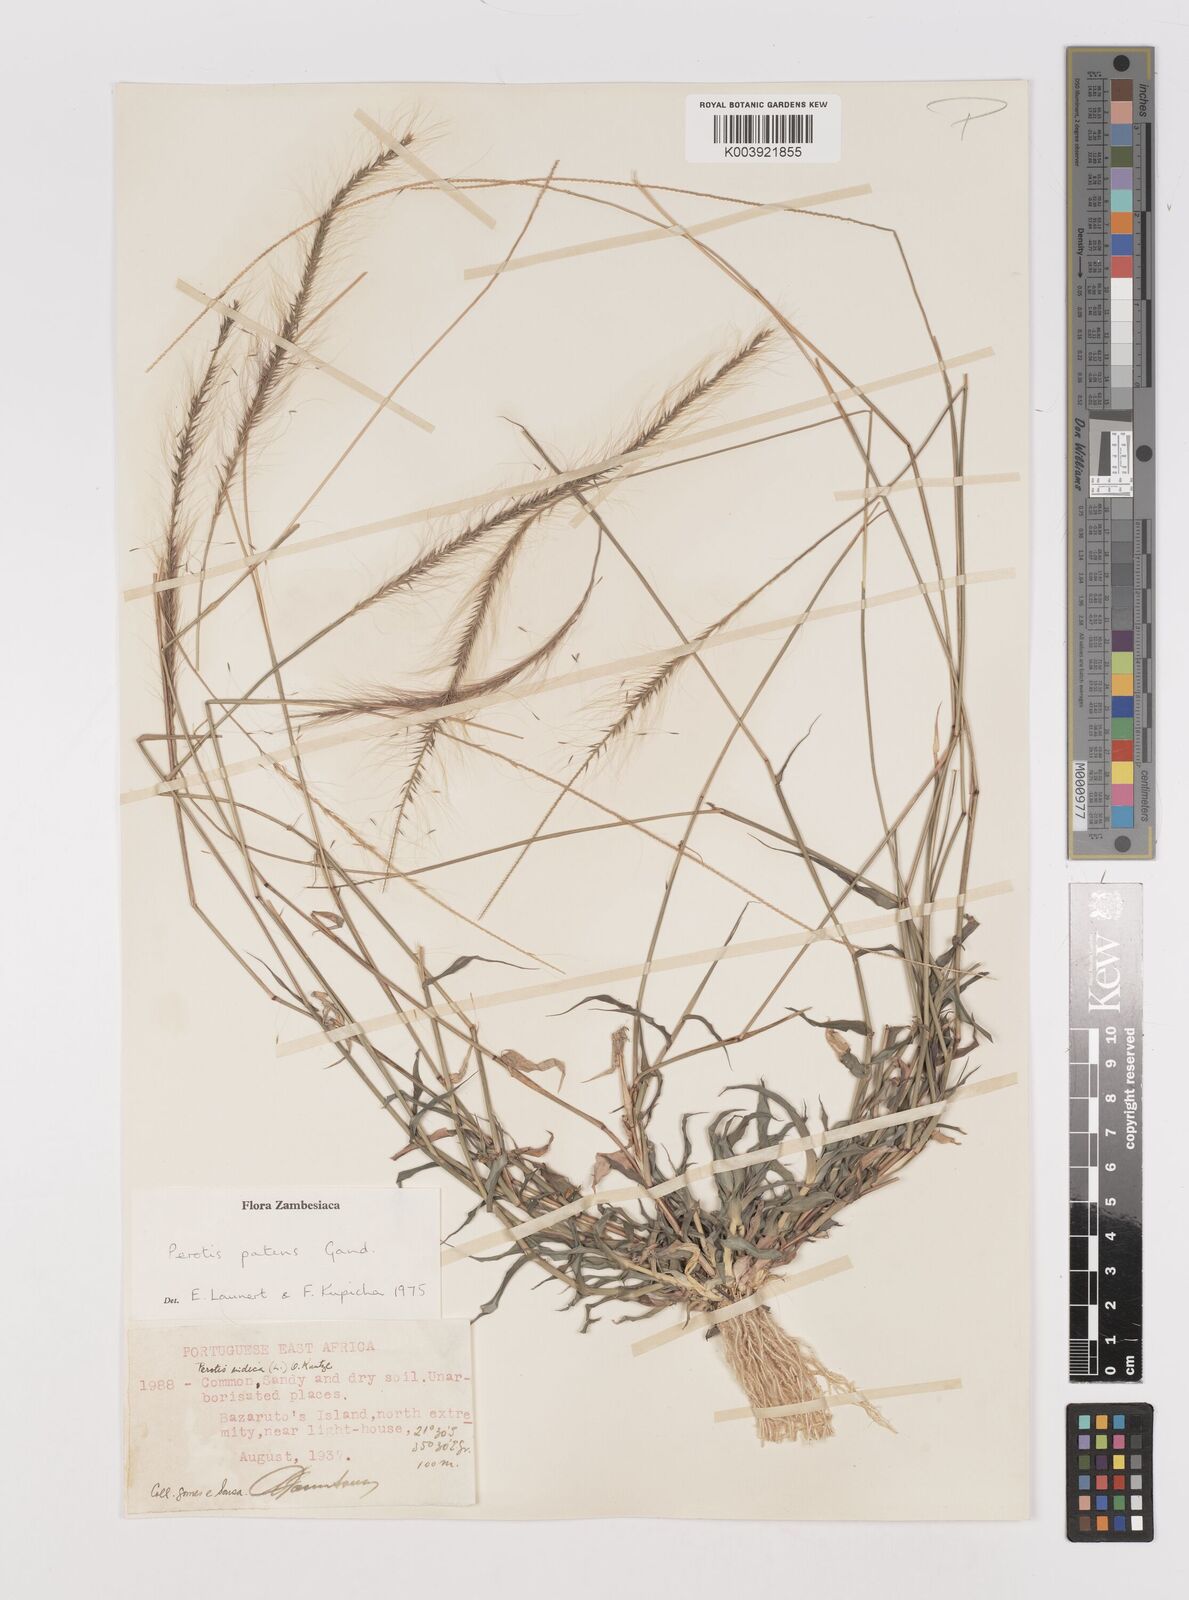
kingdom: Plantae
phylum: Tracheophyta
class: Liliopsida
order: Poales
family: Poaceae
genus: Perotis
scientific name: Perotis patens
